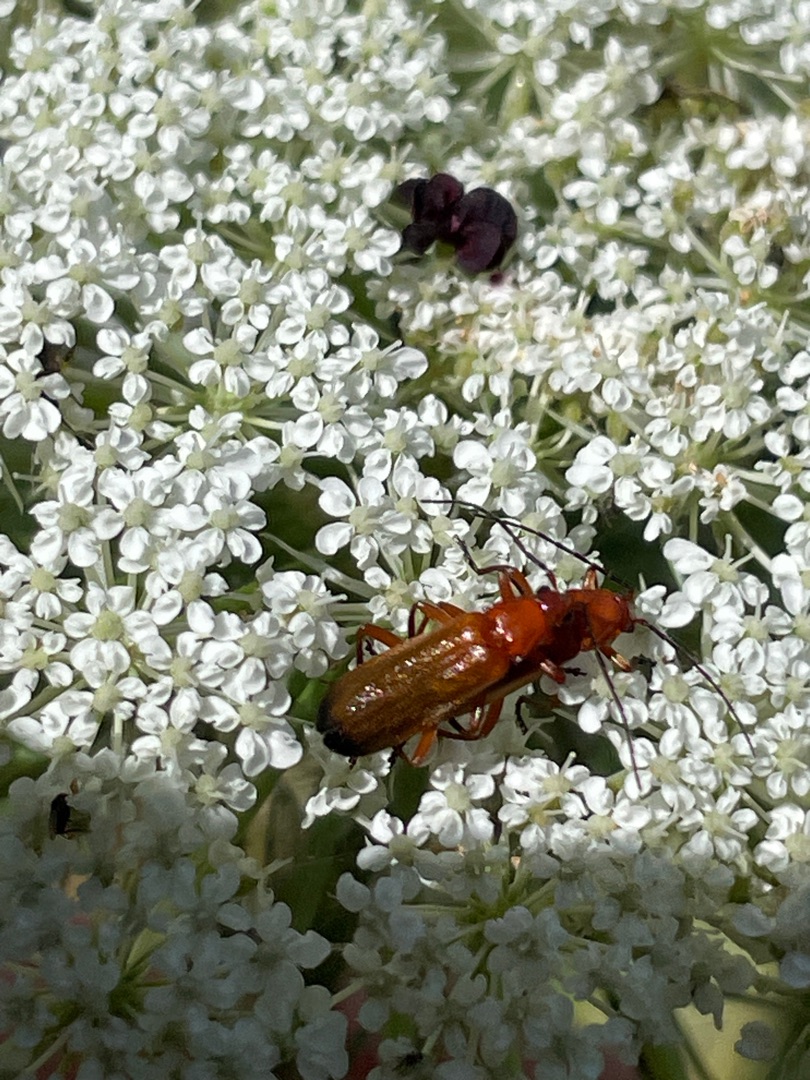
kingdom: Animalia
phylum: Arthropoda
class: Insecta
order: Coleoptera
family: Cantharidae
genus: Rhagonycha
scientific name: Rhagonycha fulva
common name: Præstebille
